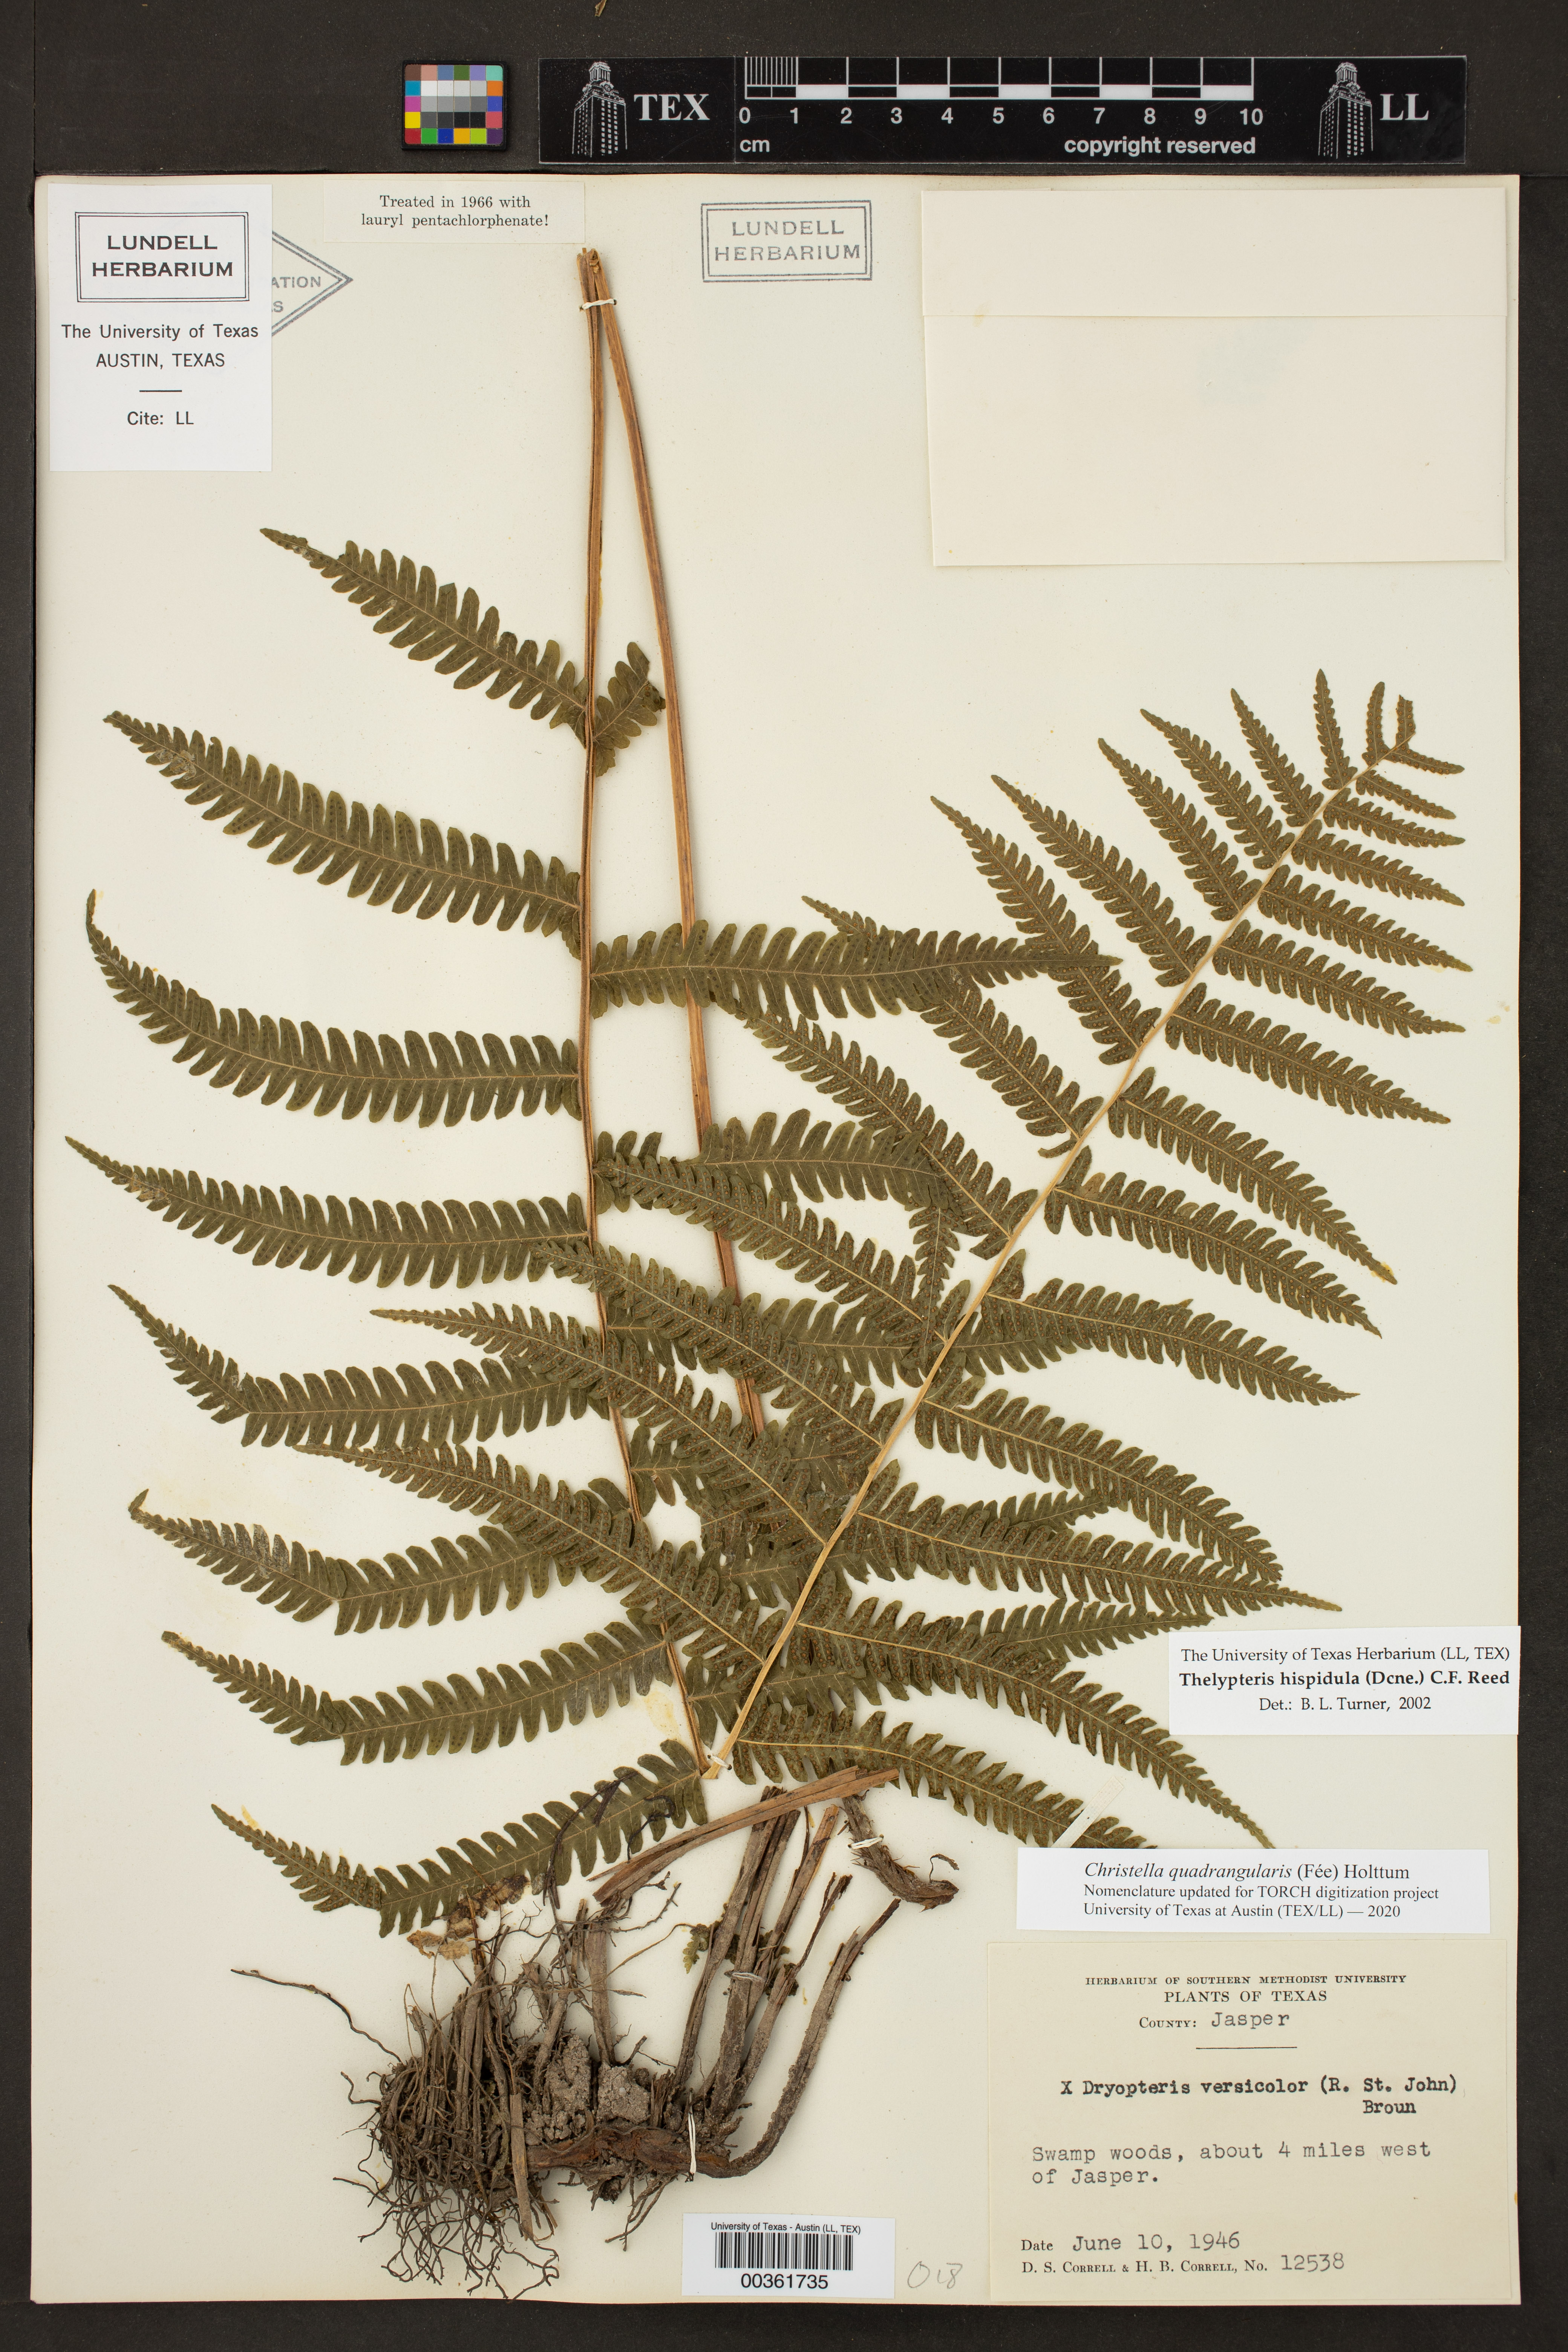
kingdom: Plantae
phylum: Tracheophyta
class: Polypodiopsida
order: Polypodiales
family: Thelypteridaceae
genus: Christella
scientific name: Christella hispidula
